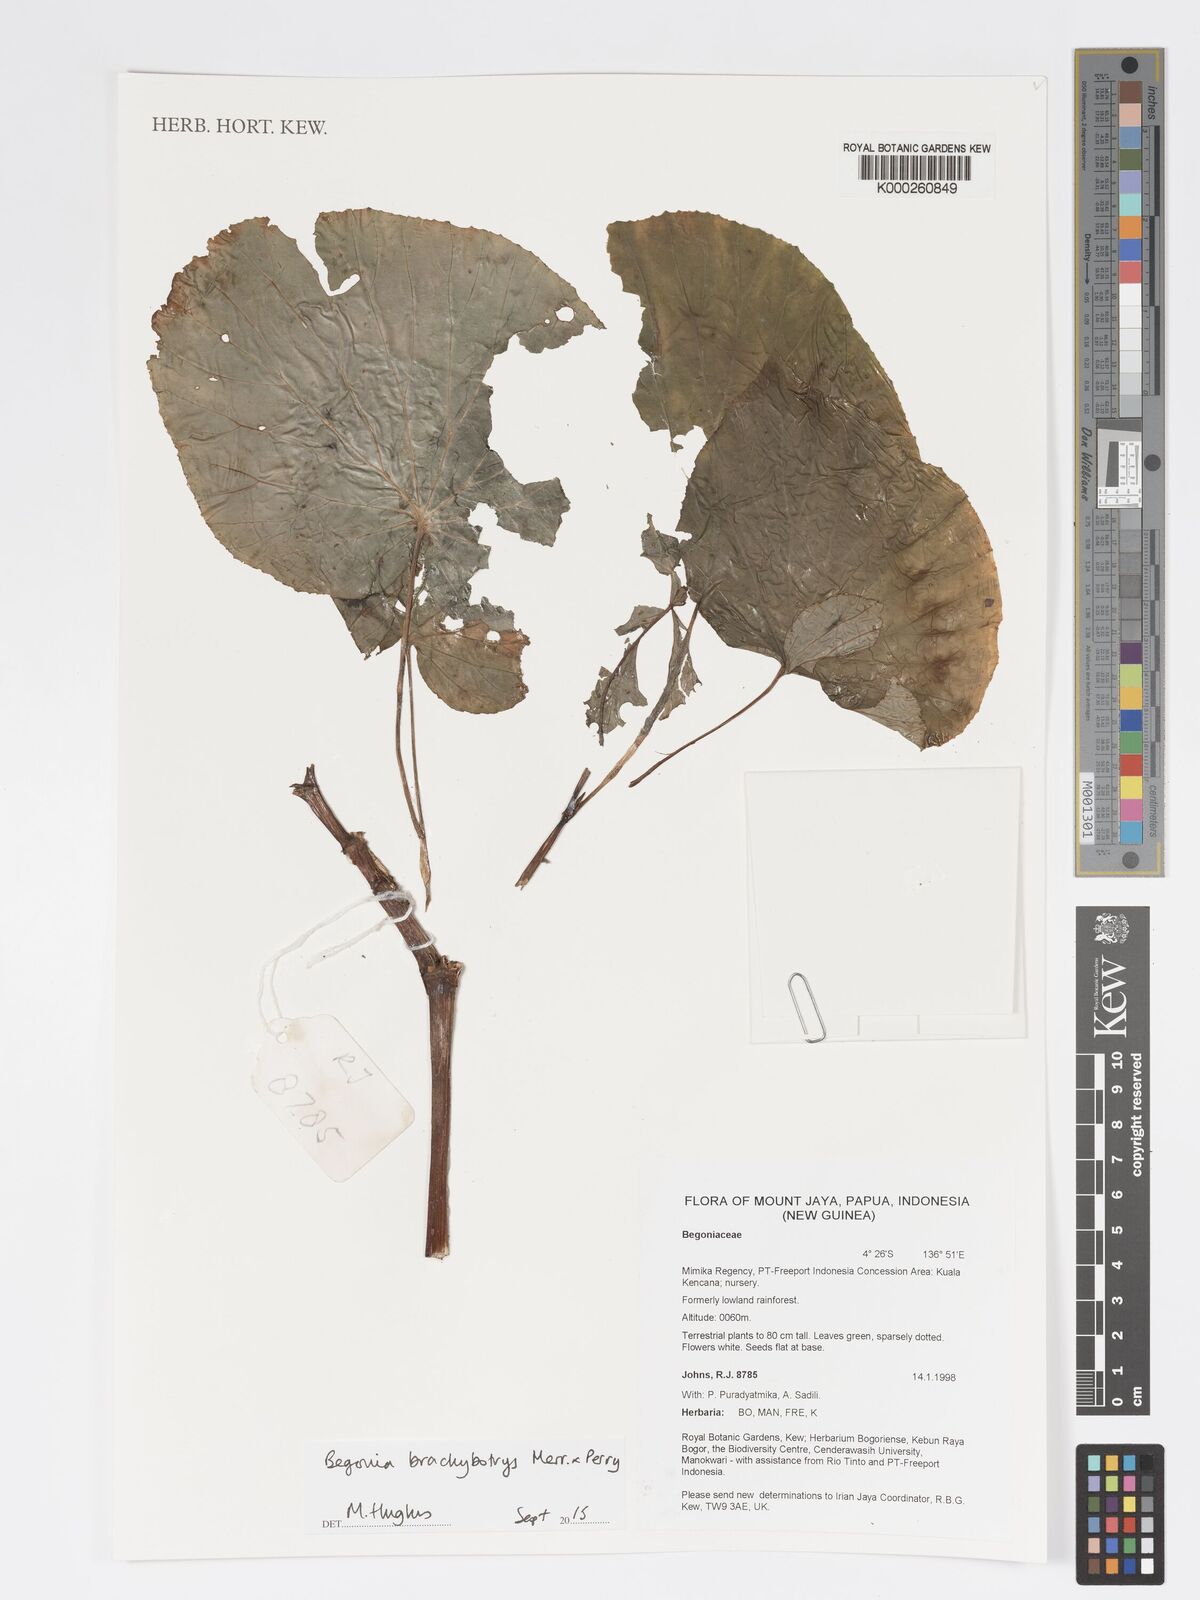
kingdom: Plantae
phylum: Tracheophyta
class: Magnoliopsida
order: Cucurbitales
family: Begoniaceae
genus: Begonia
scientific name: Begonia brachybotrys
